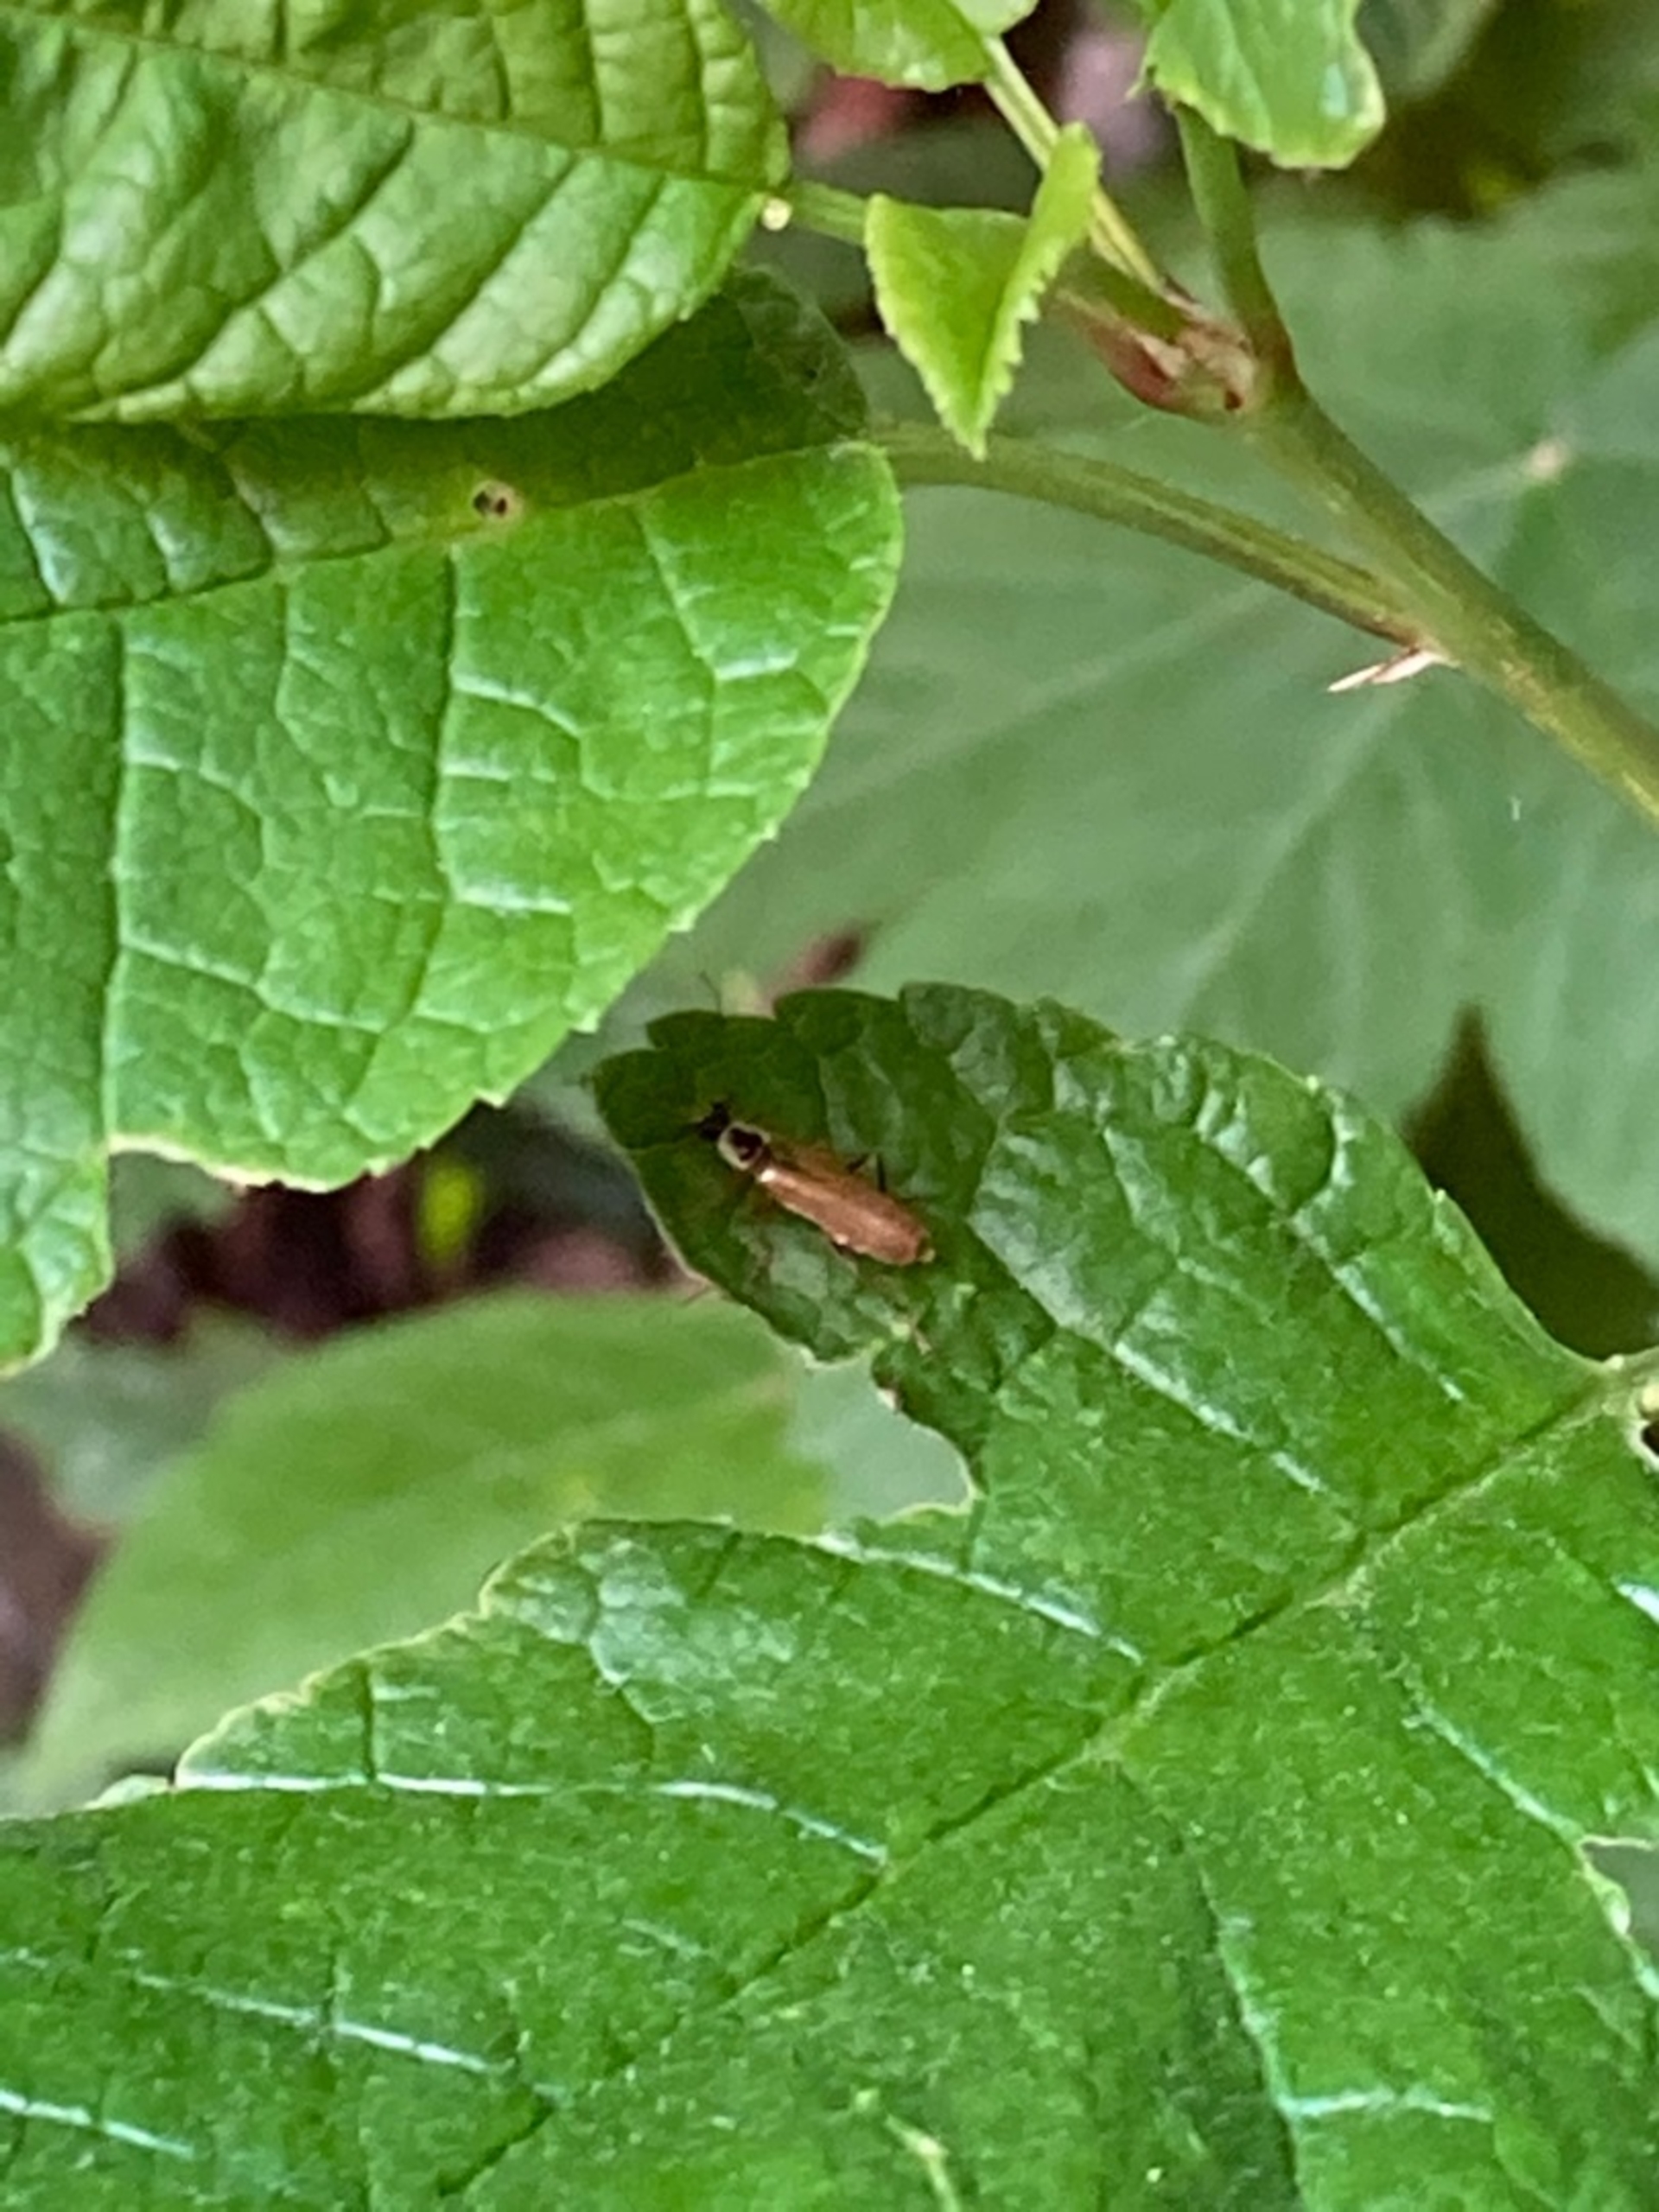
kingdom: Animalia
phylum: Arthropoda
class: Insecta
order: Coleoptera
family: Cantharidae
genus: Cantharis
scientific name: Cantharis decipiens
